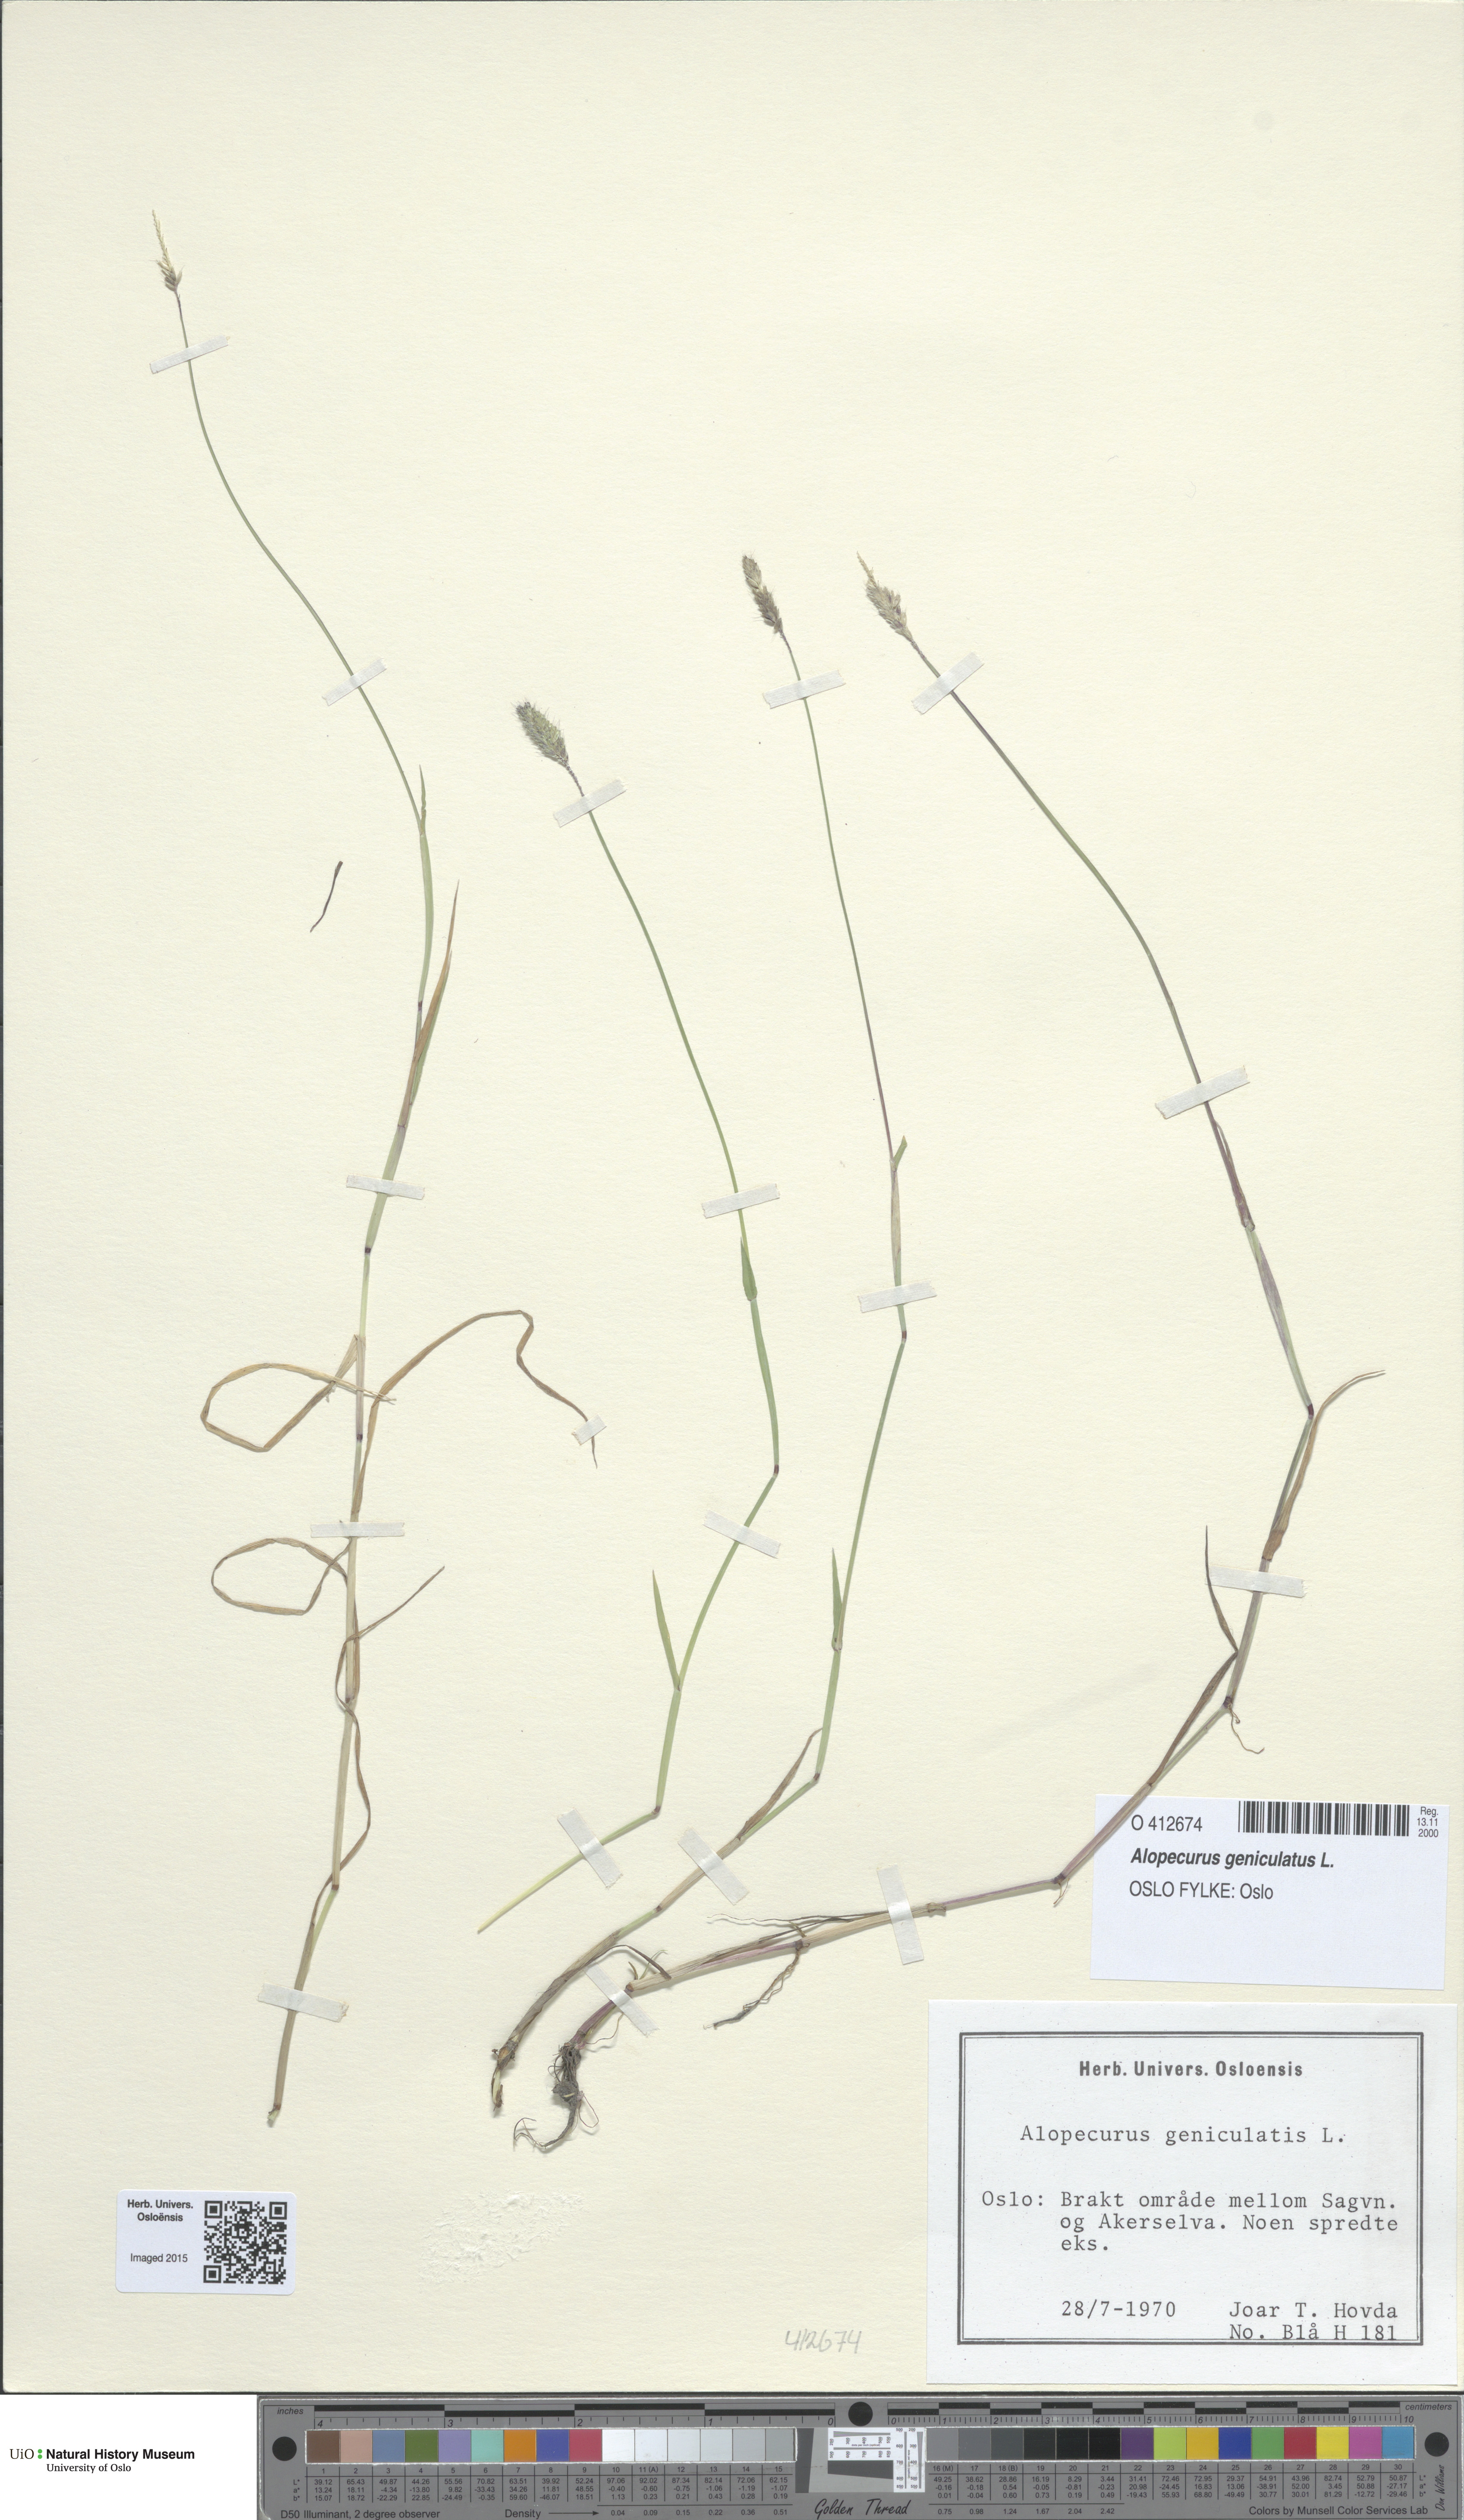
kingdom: Plantae
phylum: Tracheophyta
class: Liliopsida
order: Poales
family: Poaceae
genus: Alopecurus
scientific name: Alopecurus geniculatus
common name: Water foxtail
